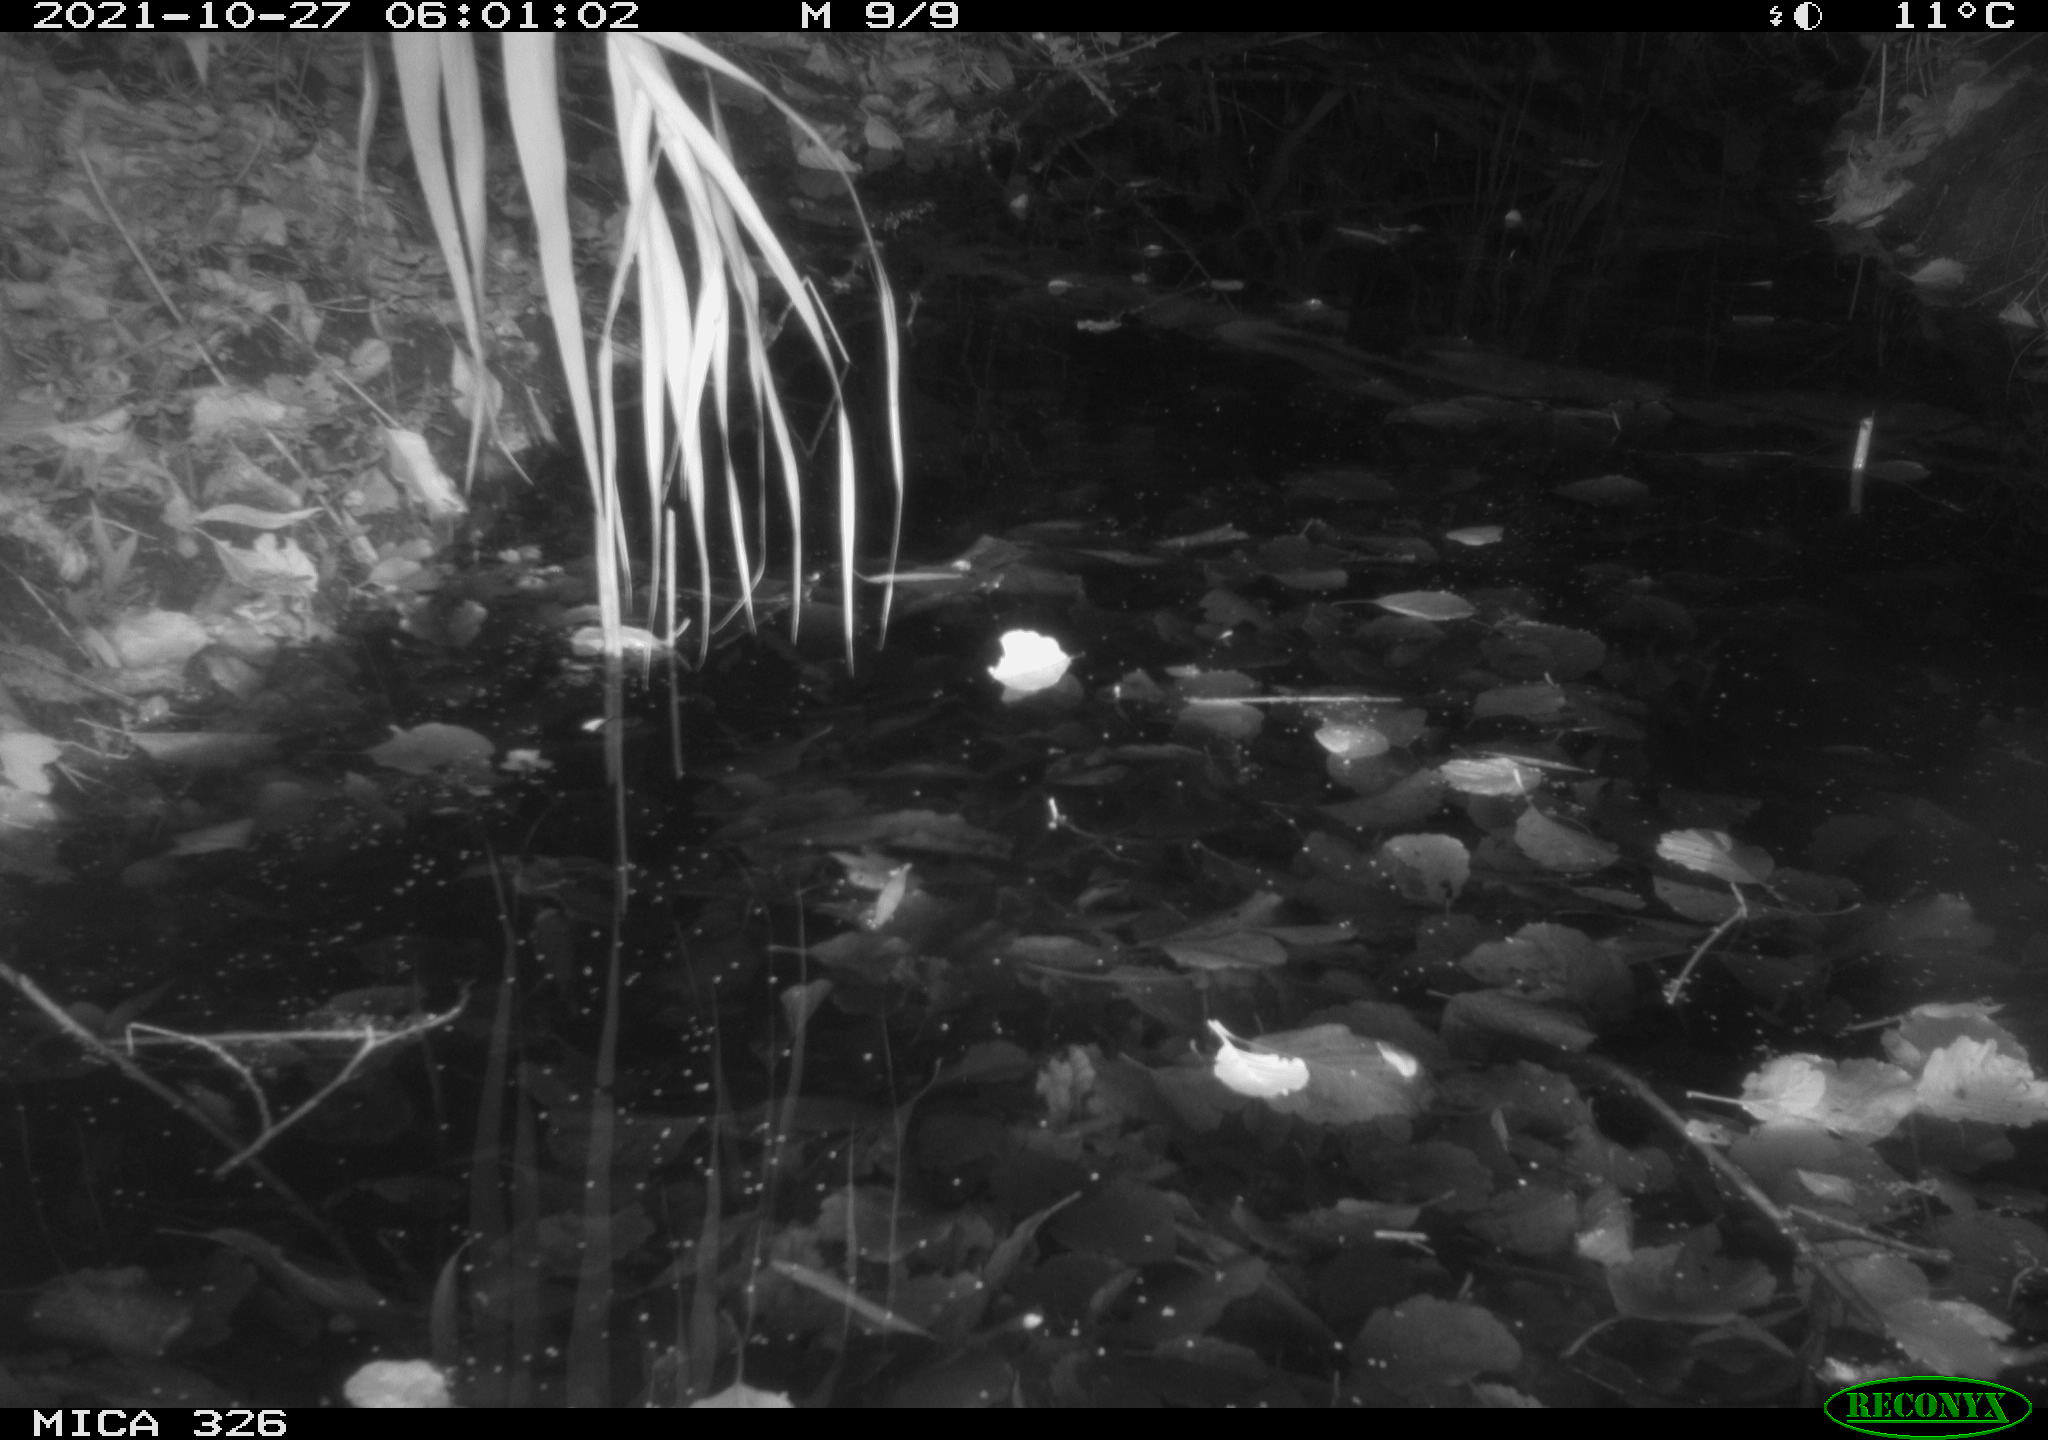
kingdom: Animalia
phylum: Chordata
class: Mammalia
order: Rodentia
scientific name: Rodentia
